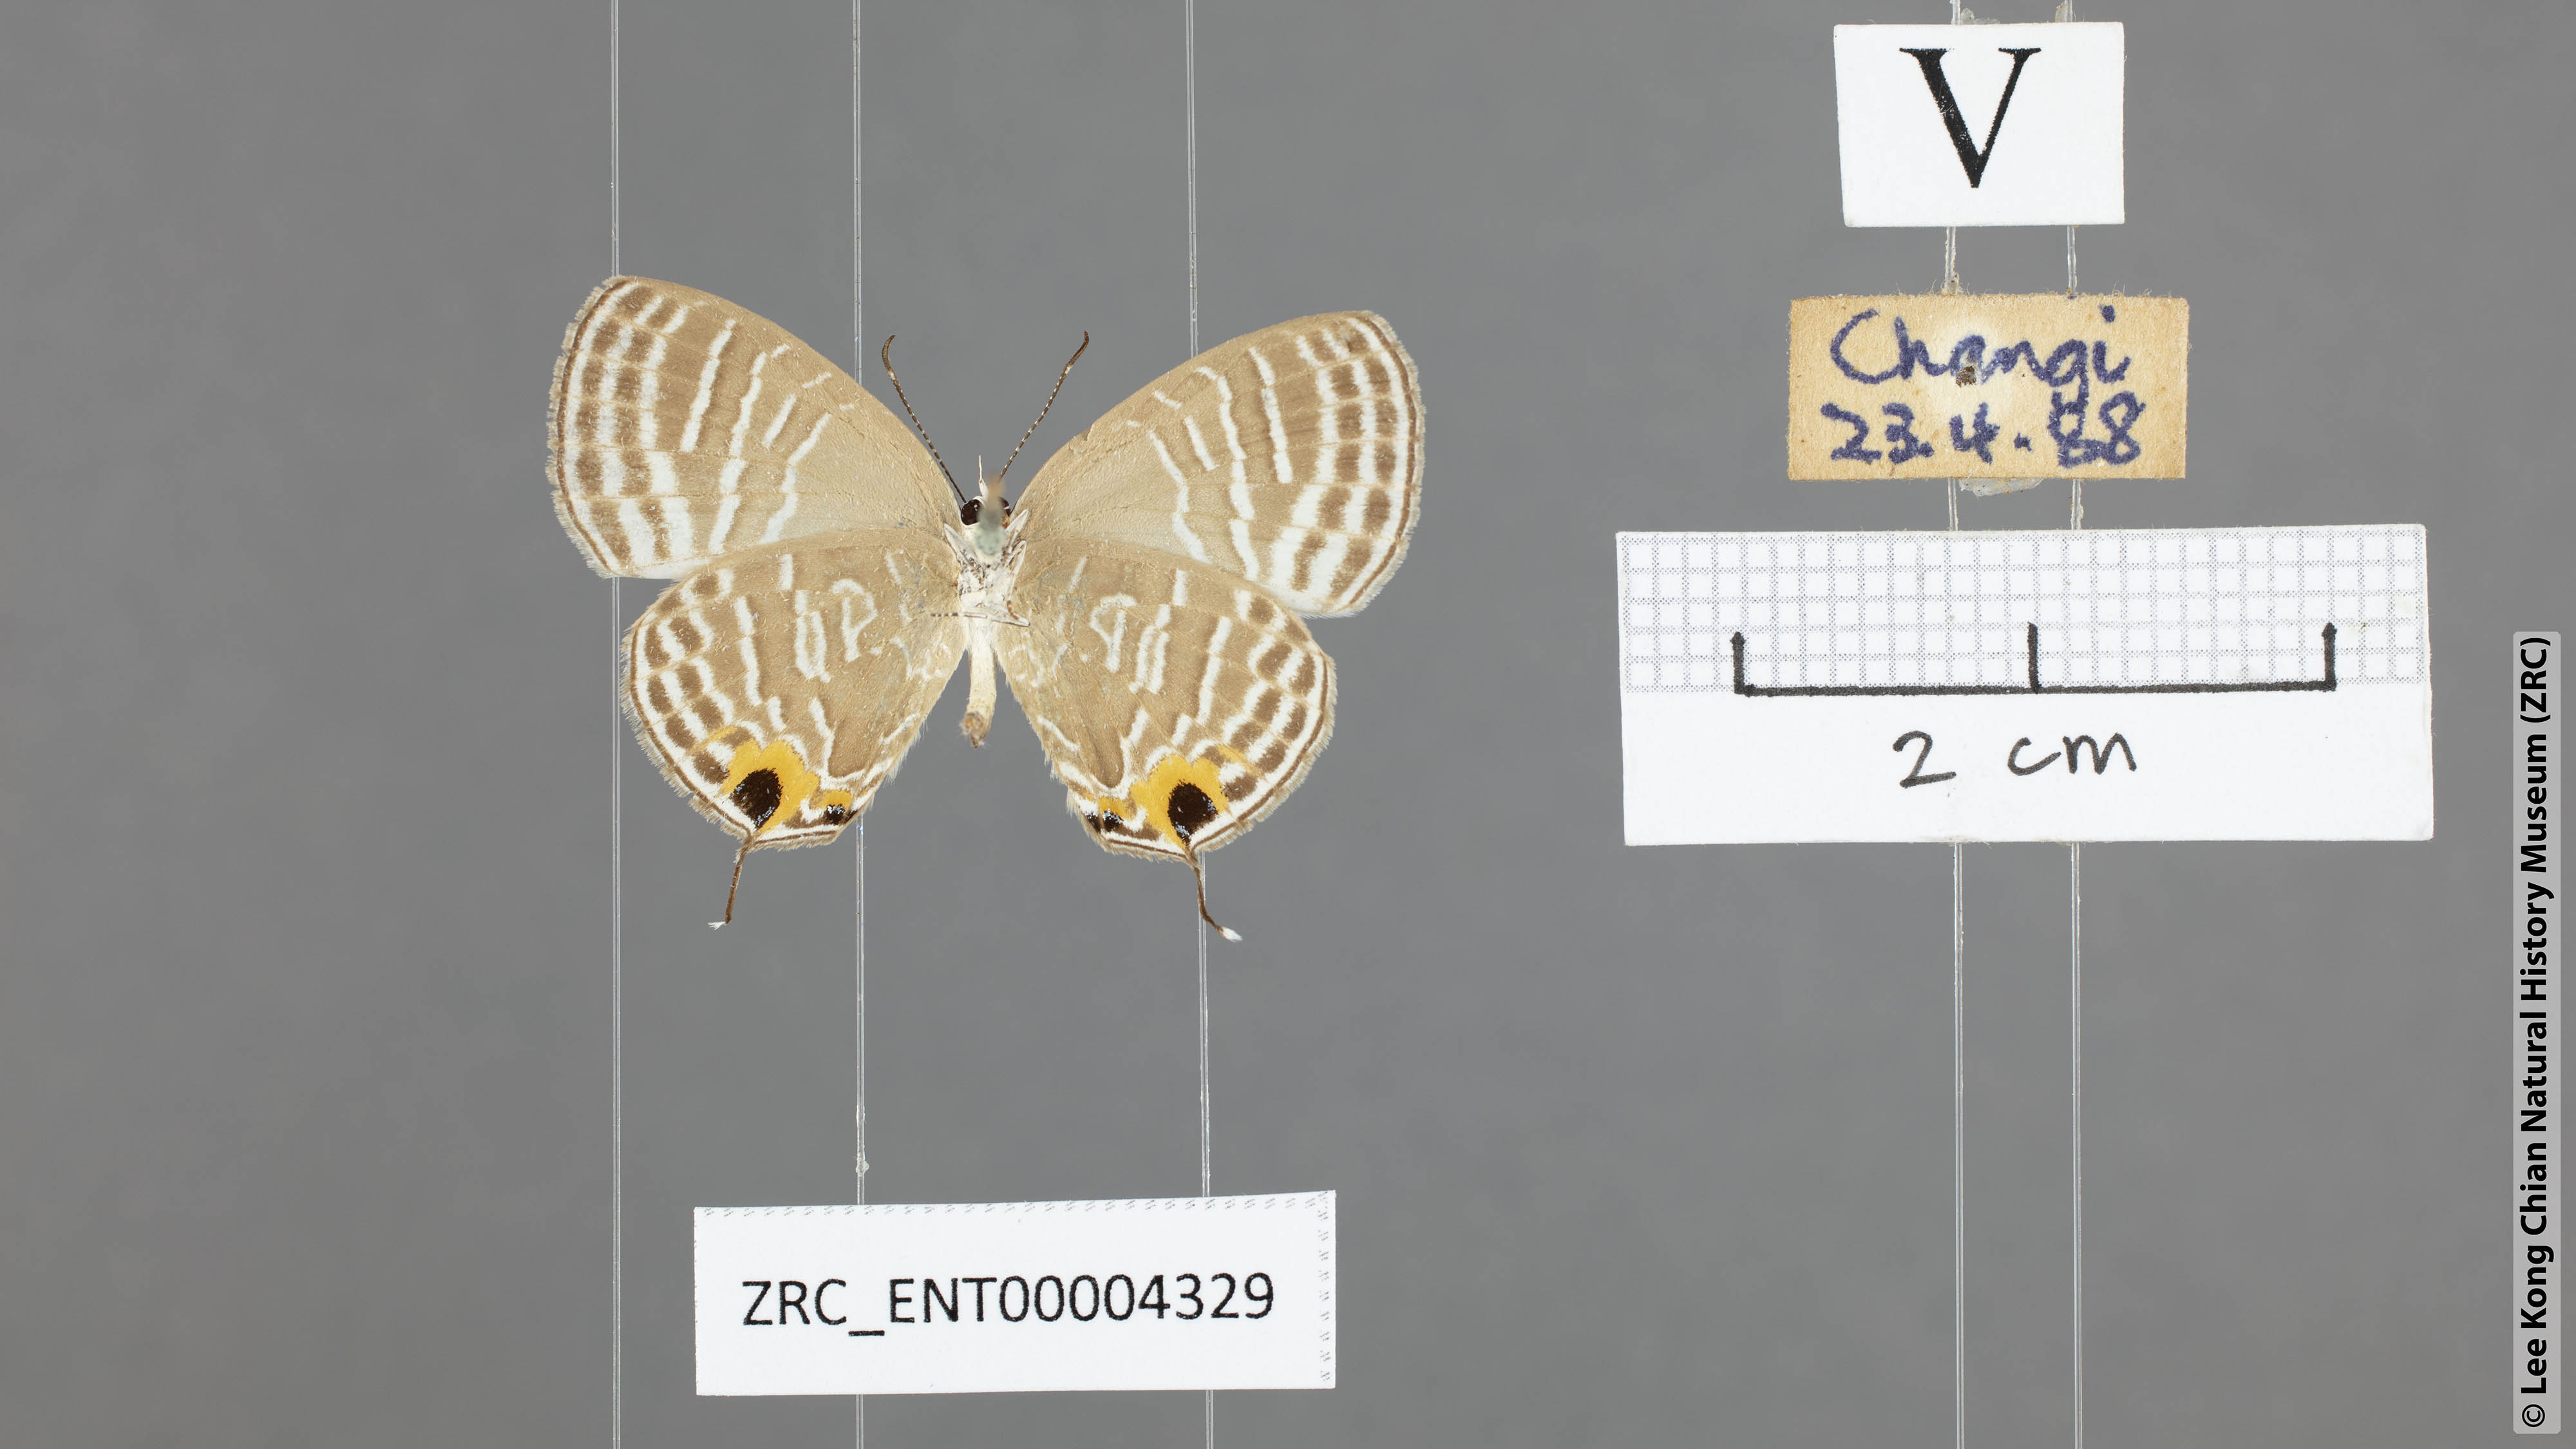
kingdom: Animalia
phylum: Arthropoda
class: Insecta
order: Lepidoptera
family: Lycaenidae
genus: Jamides
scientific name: Jamides celeno
